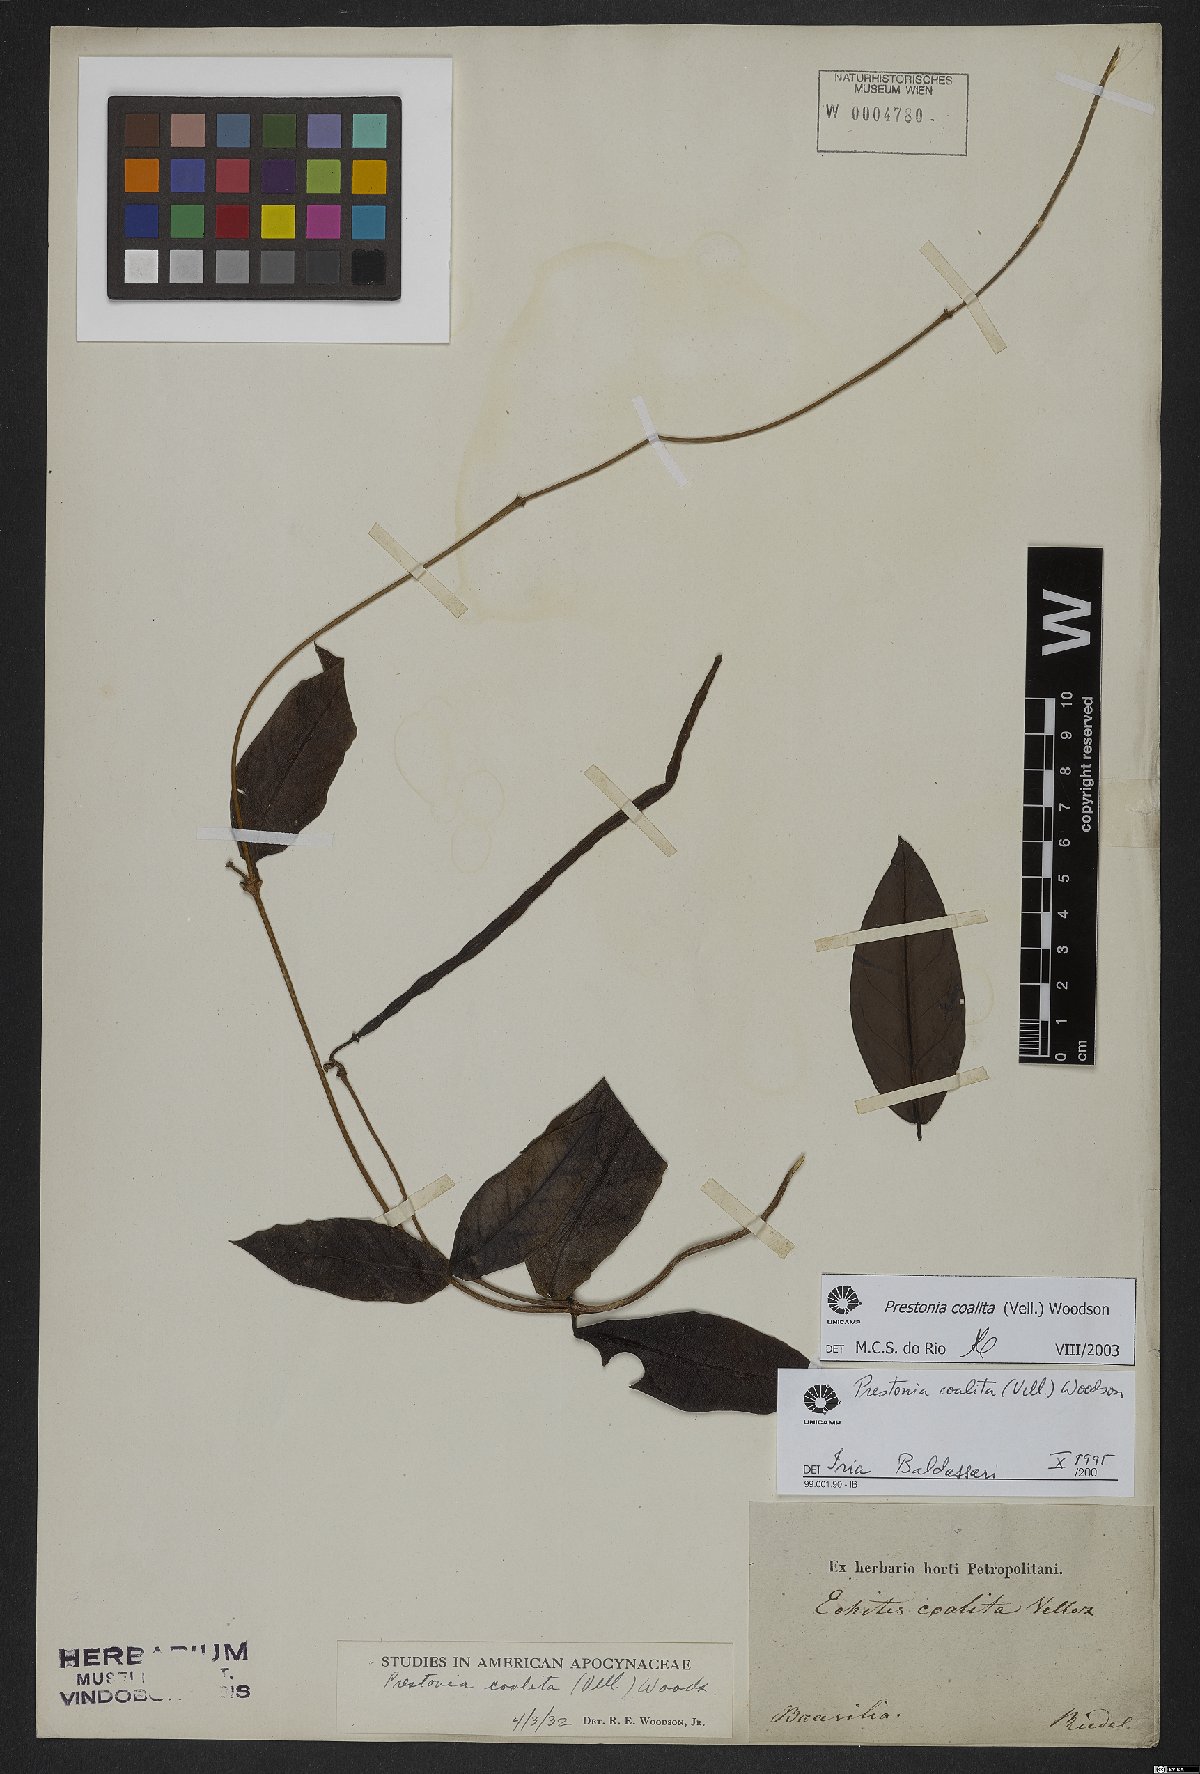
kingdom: Plantae
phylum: Tracheophyta
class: Magnoliopsida
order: Gentianales
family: Apocynaceae
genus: Prestonia
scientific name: Prestonia coalita
